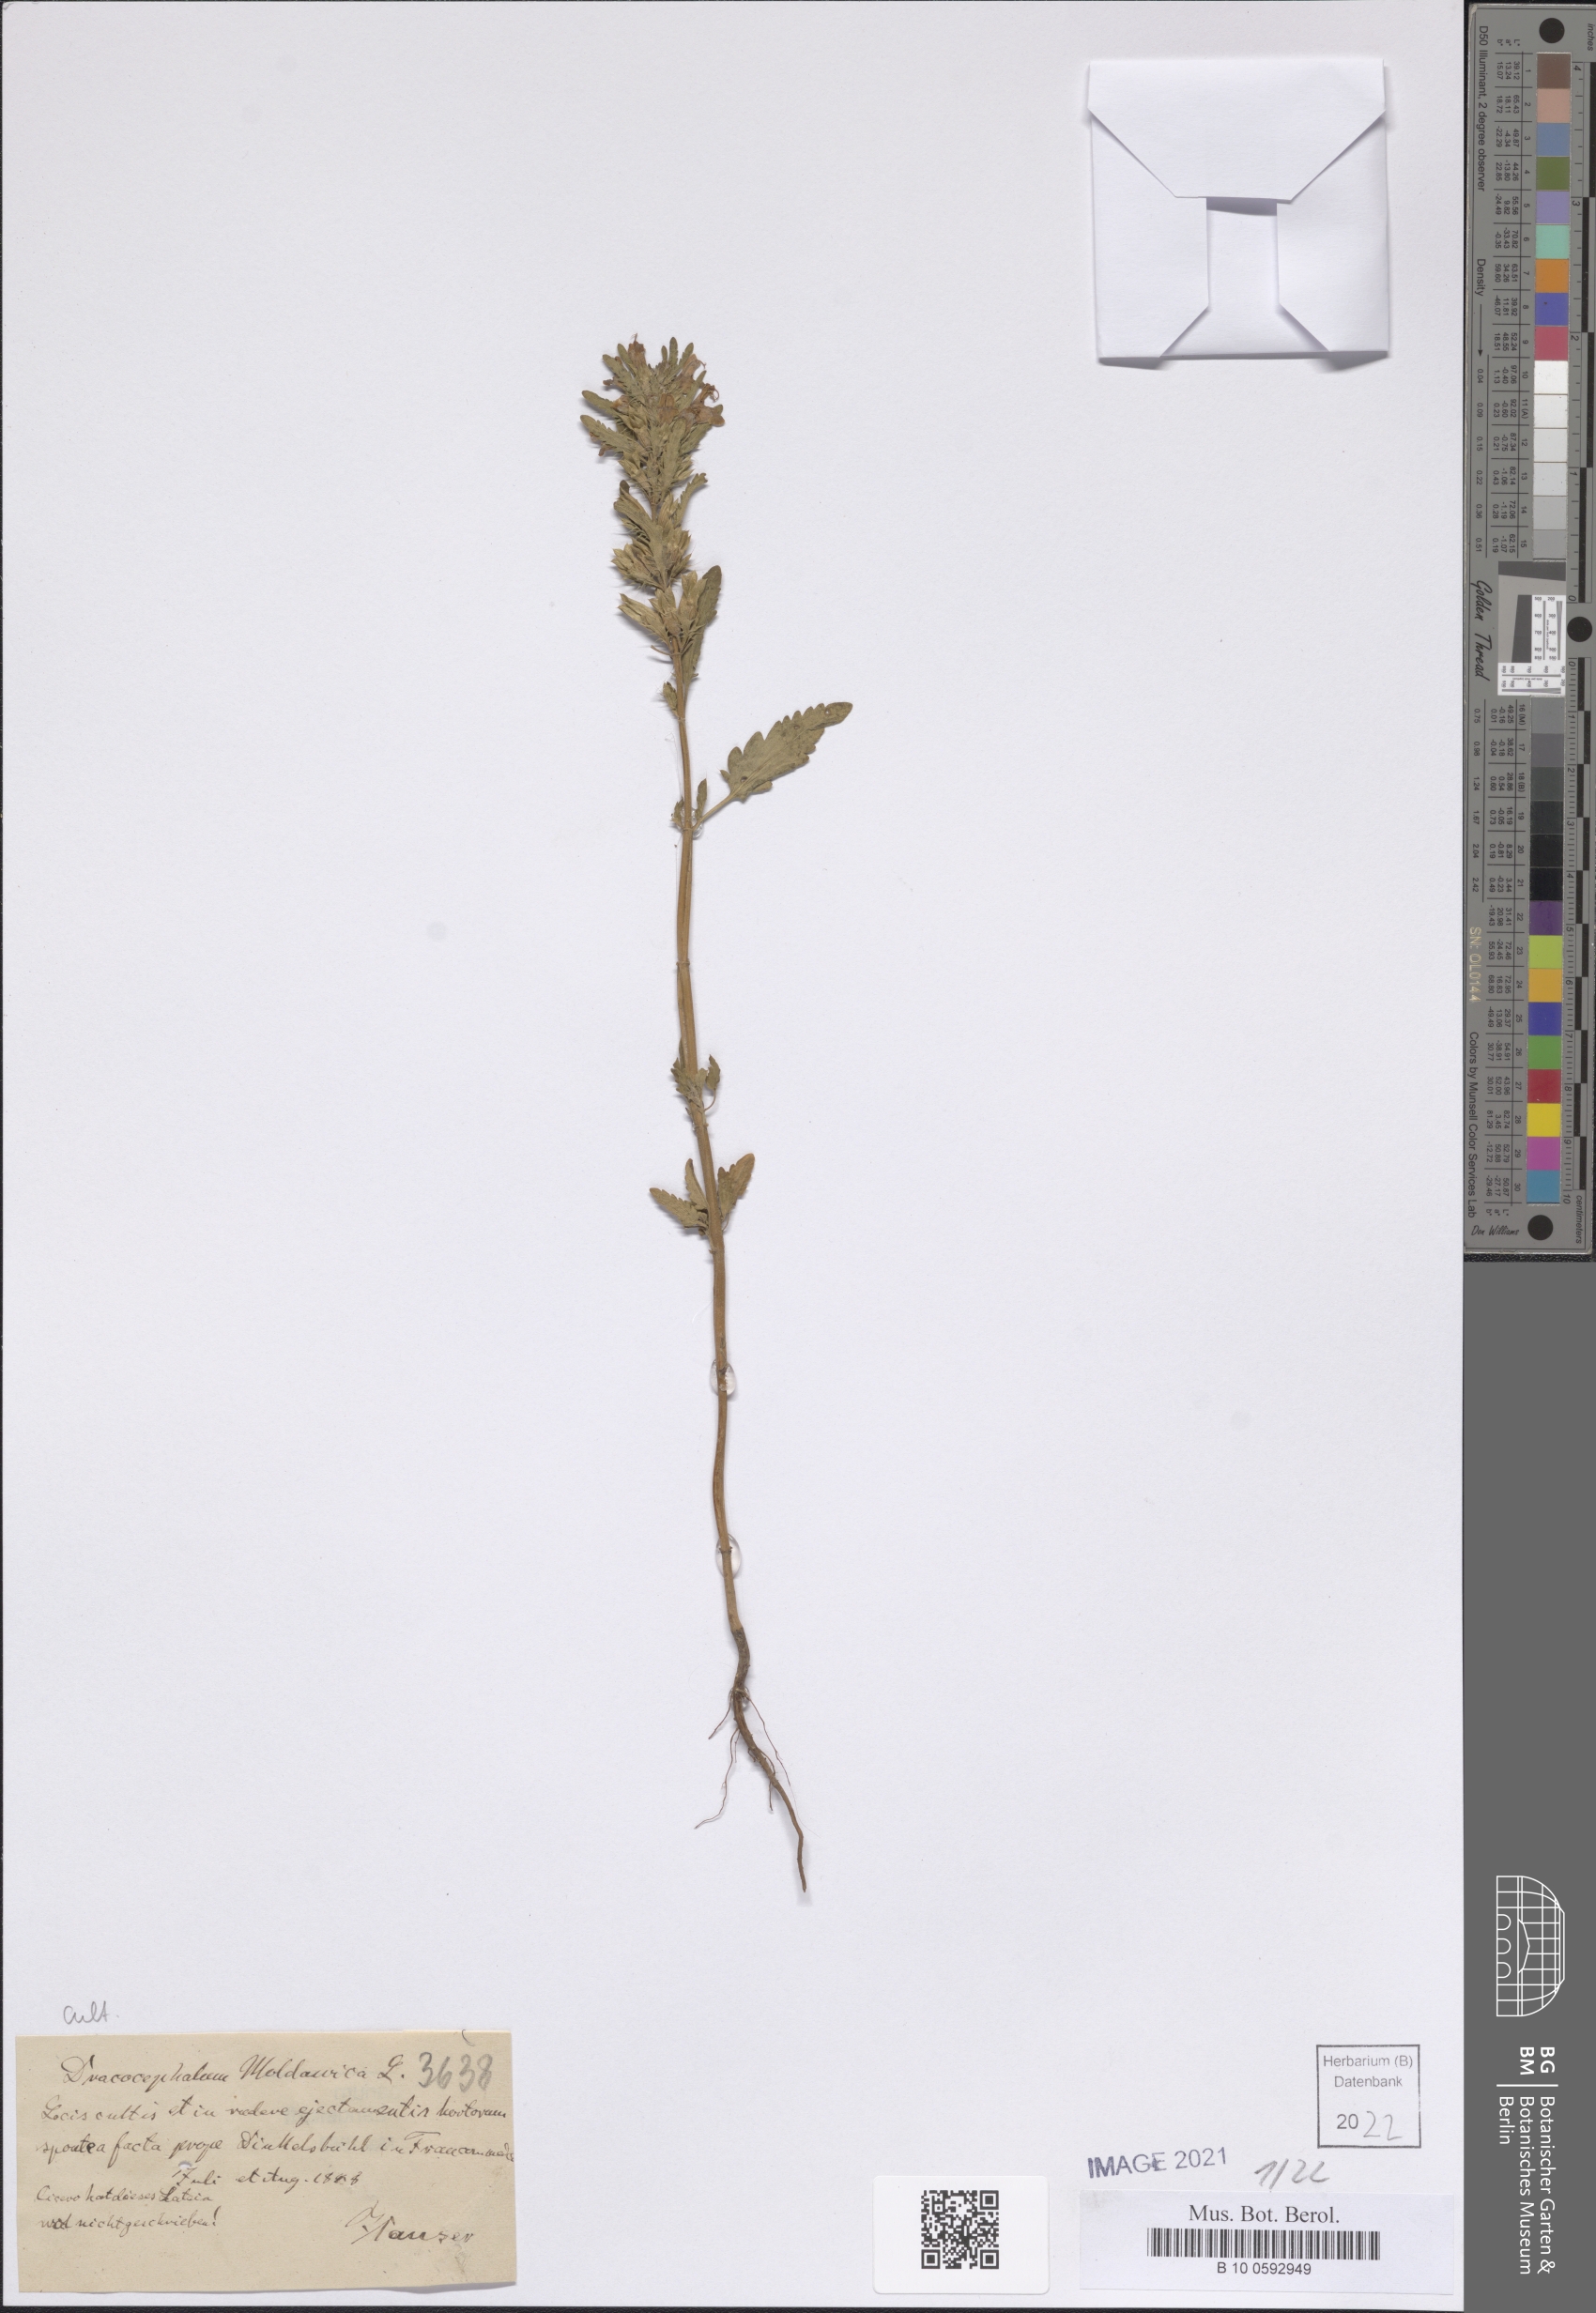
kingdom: Plantae
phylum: Tracheophyta
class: Magnoliopsida
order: Lamiales
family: Lamiaceae
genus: Dracocephalum
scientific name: Dracocephalum moldavica
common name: Moldavian dragonhead
